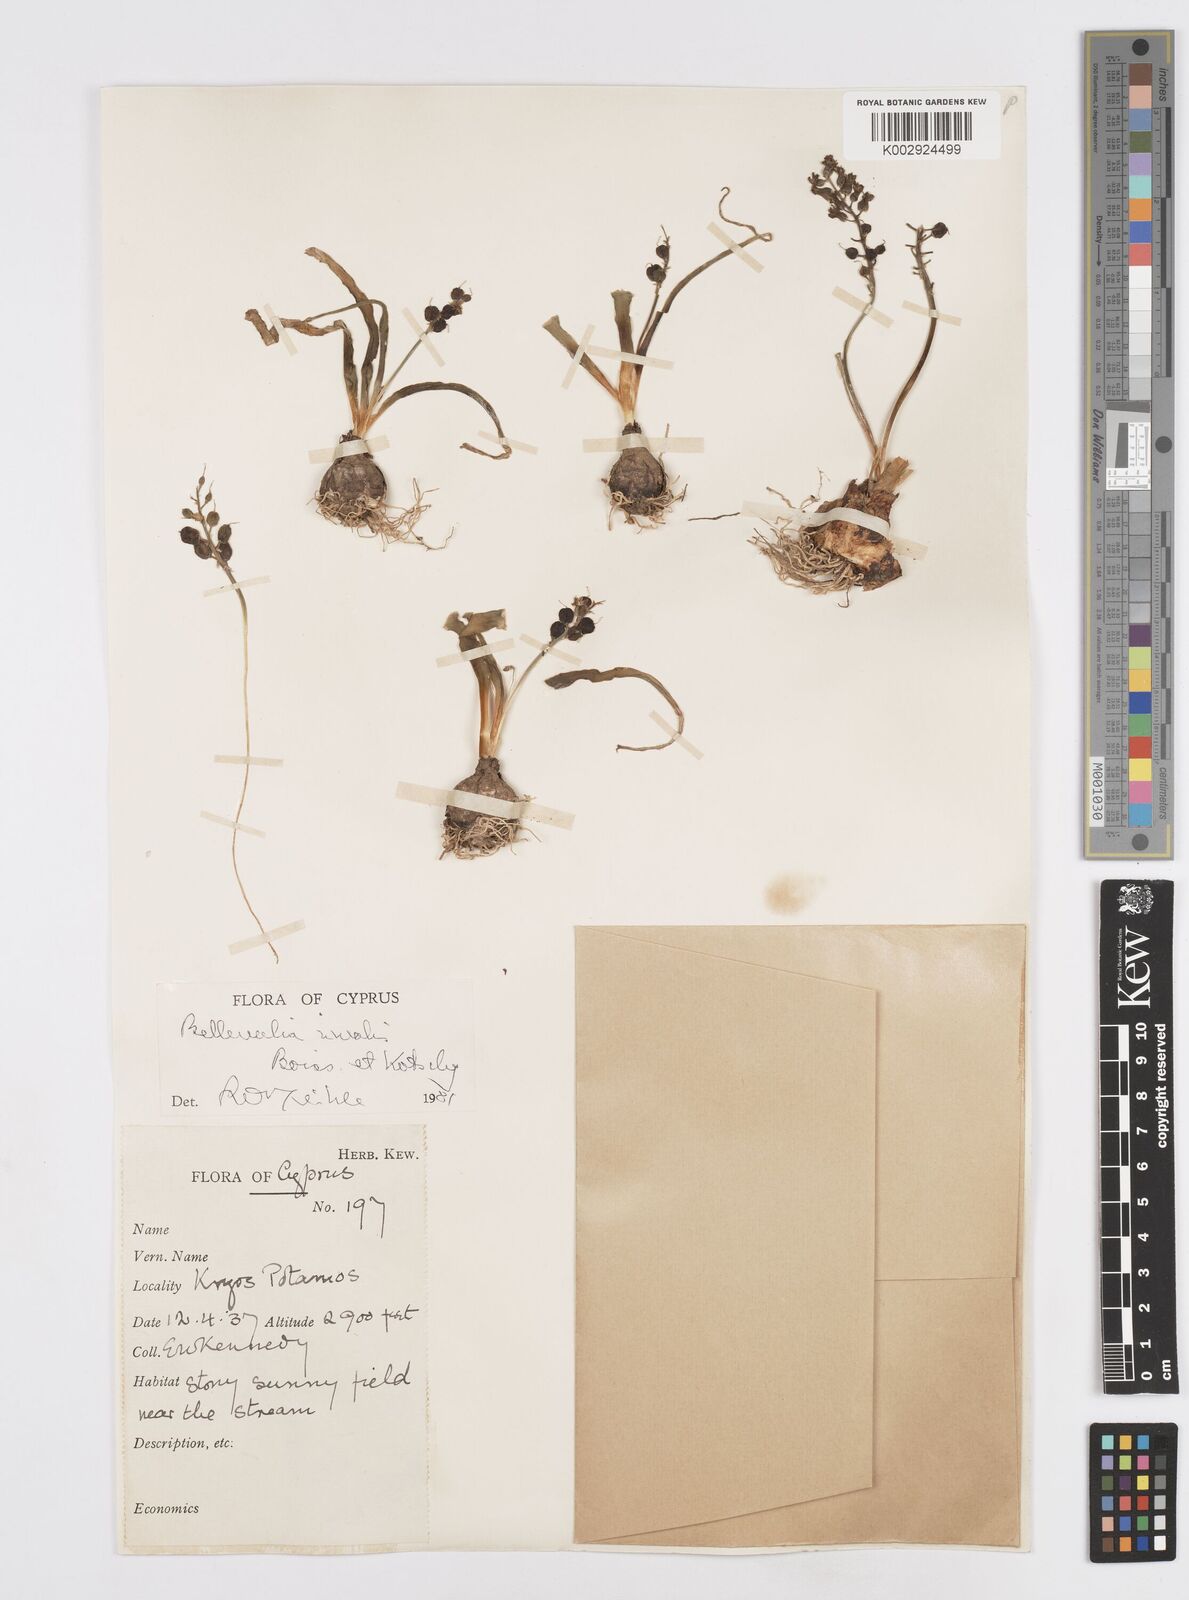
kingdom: Plantae
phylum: Tracheophyta
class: Liliopsida
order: Asparagales
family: Asparagaceae
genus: Bellevalia
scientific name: Bellevalia nivalis
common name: Snow bellevalia
